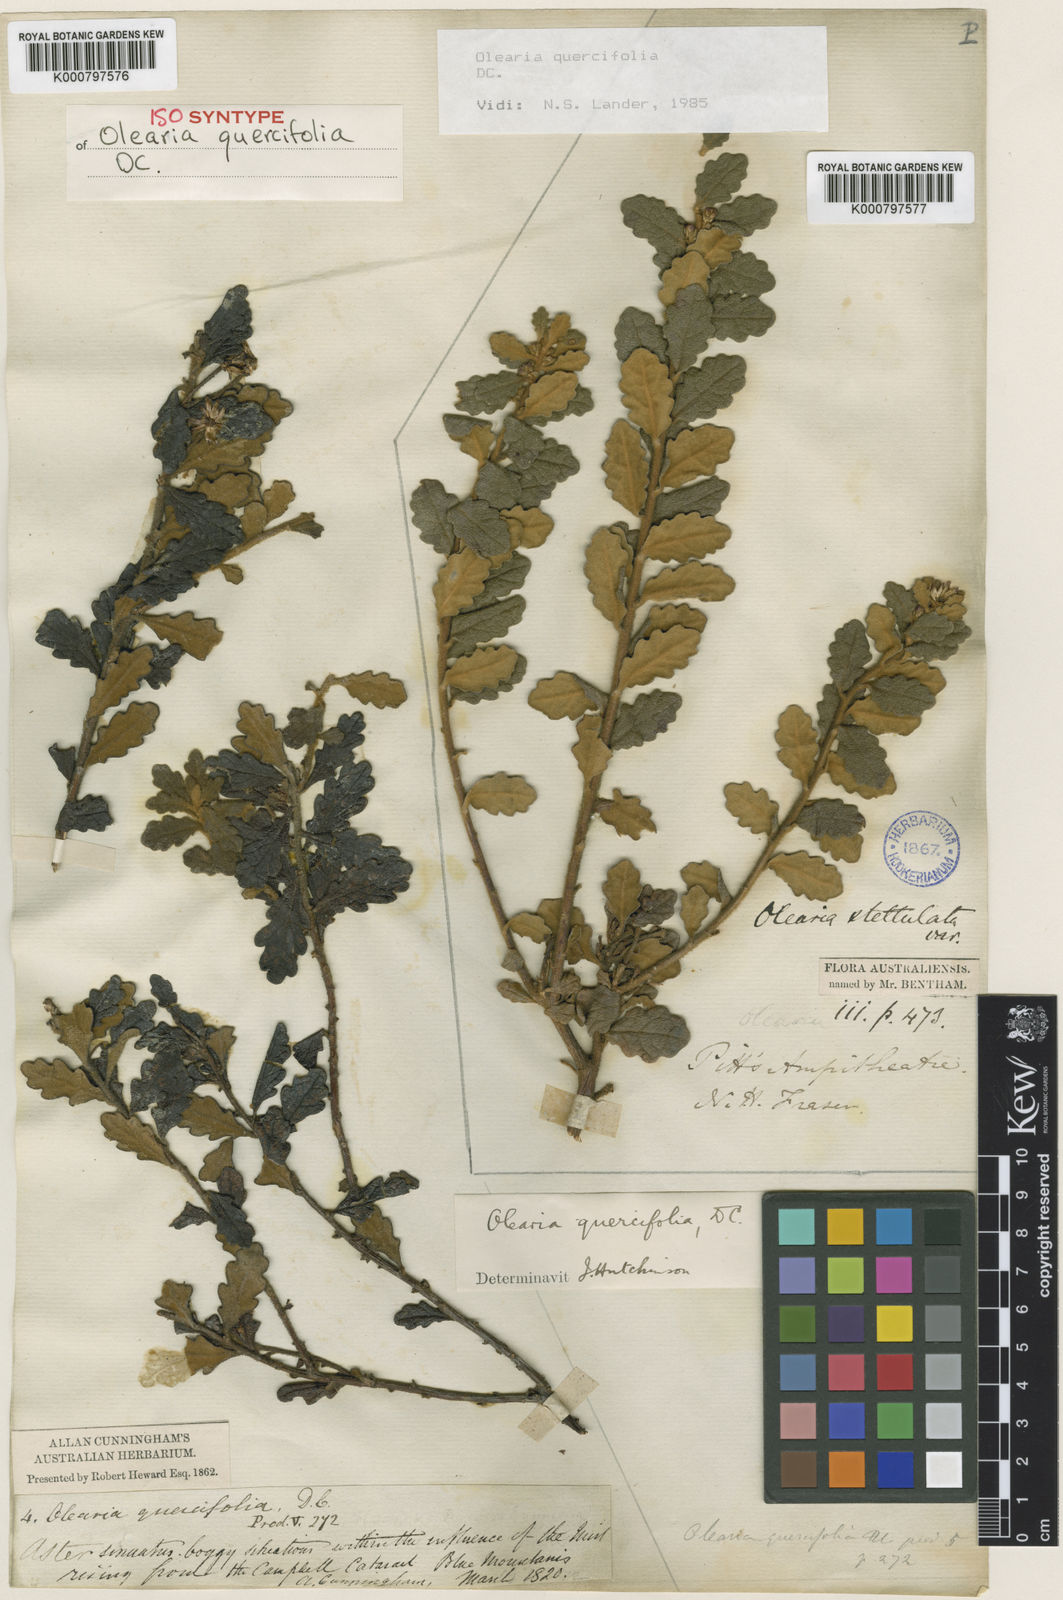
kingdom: Plantae
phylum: Tracheophyta
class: Magnoliopsida
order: Asterales
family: Asteraceae
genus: Olearia
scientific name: Olearia quercifolia
